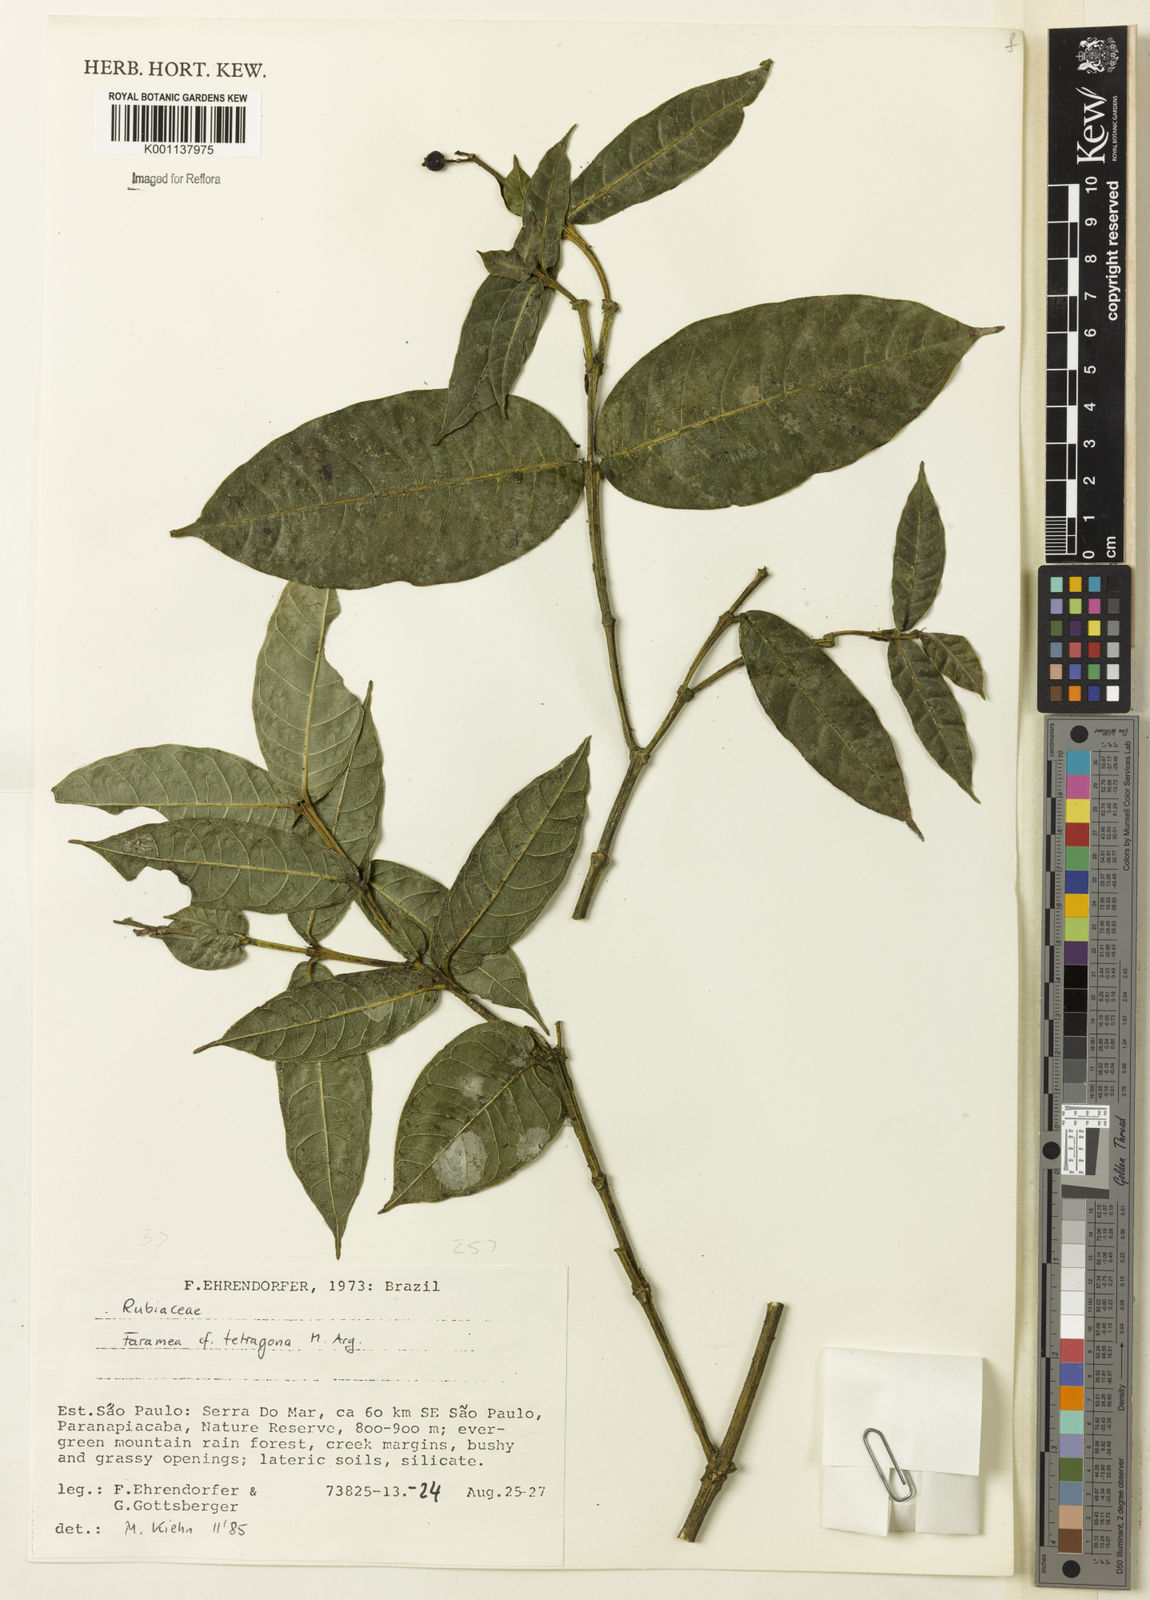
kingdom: Plantae
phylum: Tracheophyta
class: Magnoliopsida
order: Gentianales
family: Rubiaceae
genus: Faramea
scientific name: Faramea
